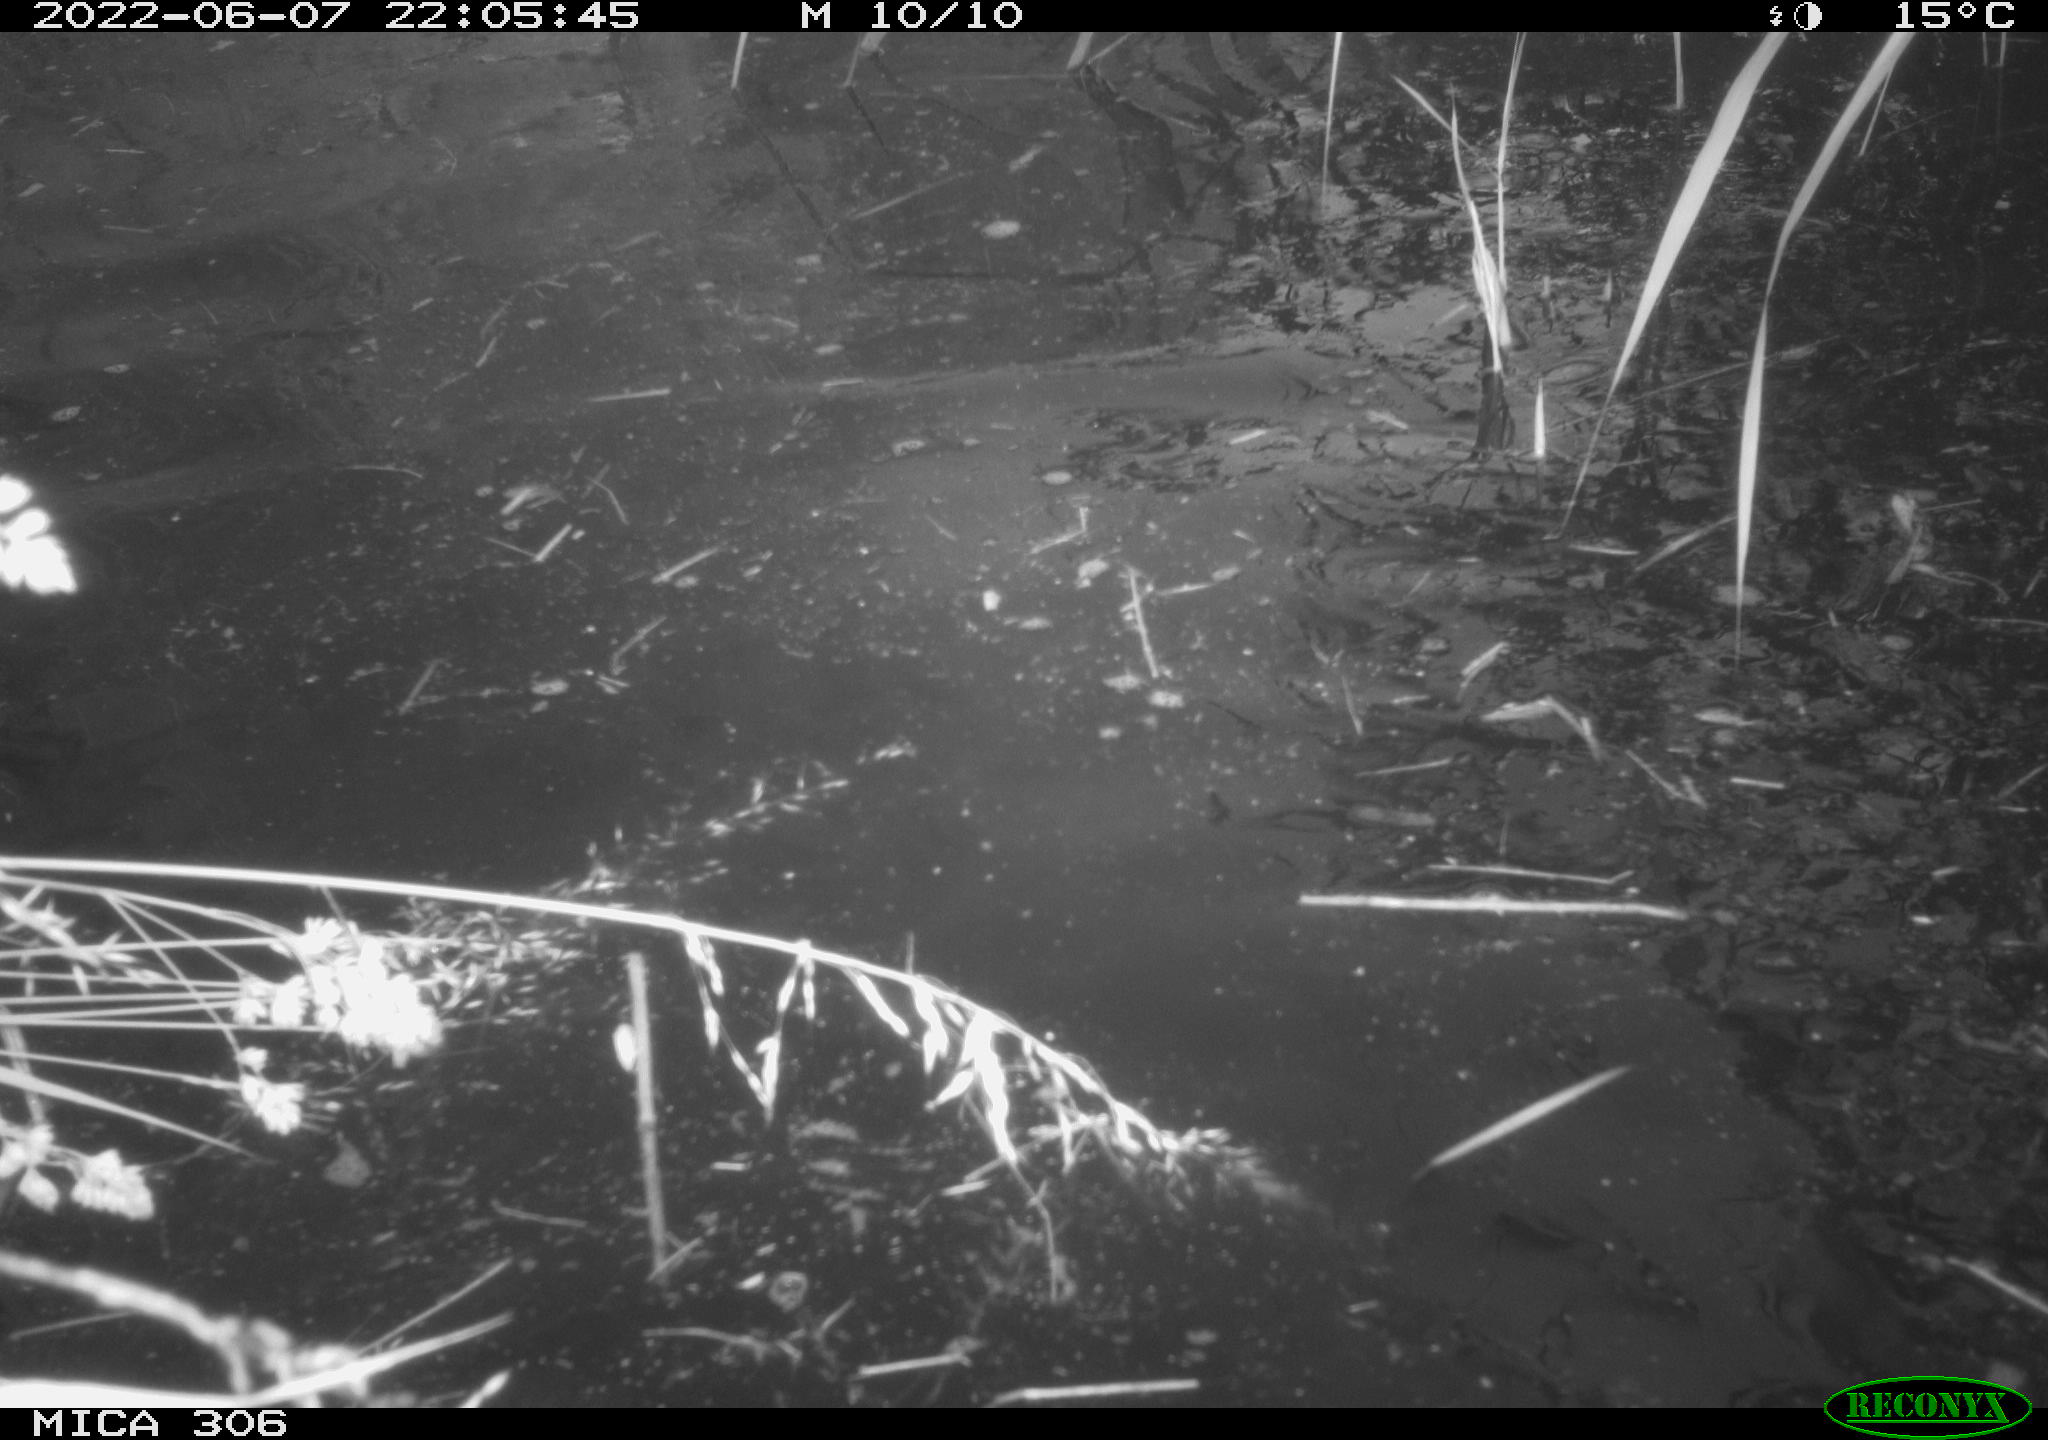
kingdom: Animalia
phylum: Chordata
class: Aves
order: Anseriformes
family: Anatidae
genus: Anas
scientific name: Anas platyrhynchos
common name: Mallard
